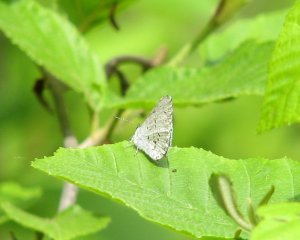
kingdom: Animalia
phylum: Arthropoda
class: Insecta
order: Lepidoptera
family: Lycaenidae
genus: Celastrina
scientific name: Celastrina ladon
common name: Spring Azure
